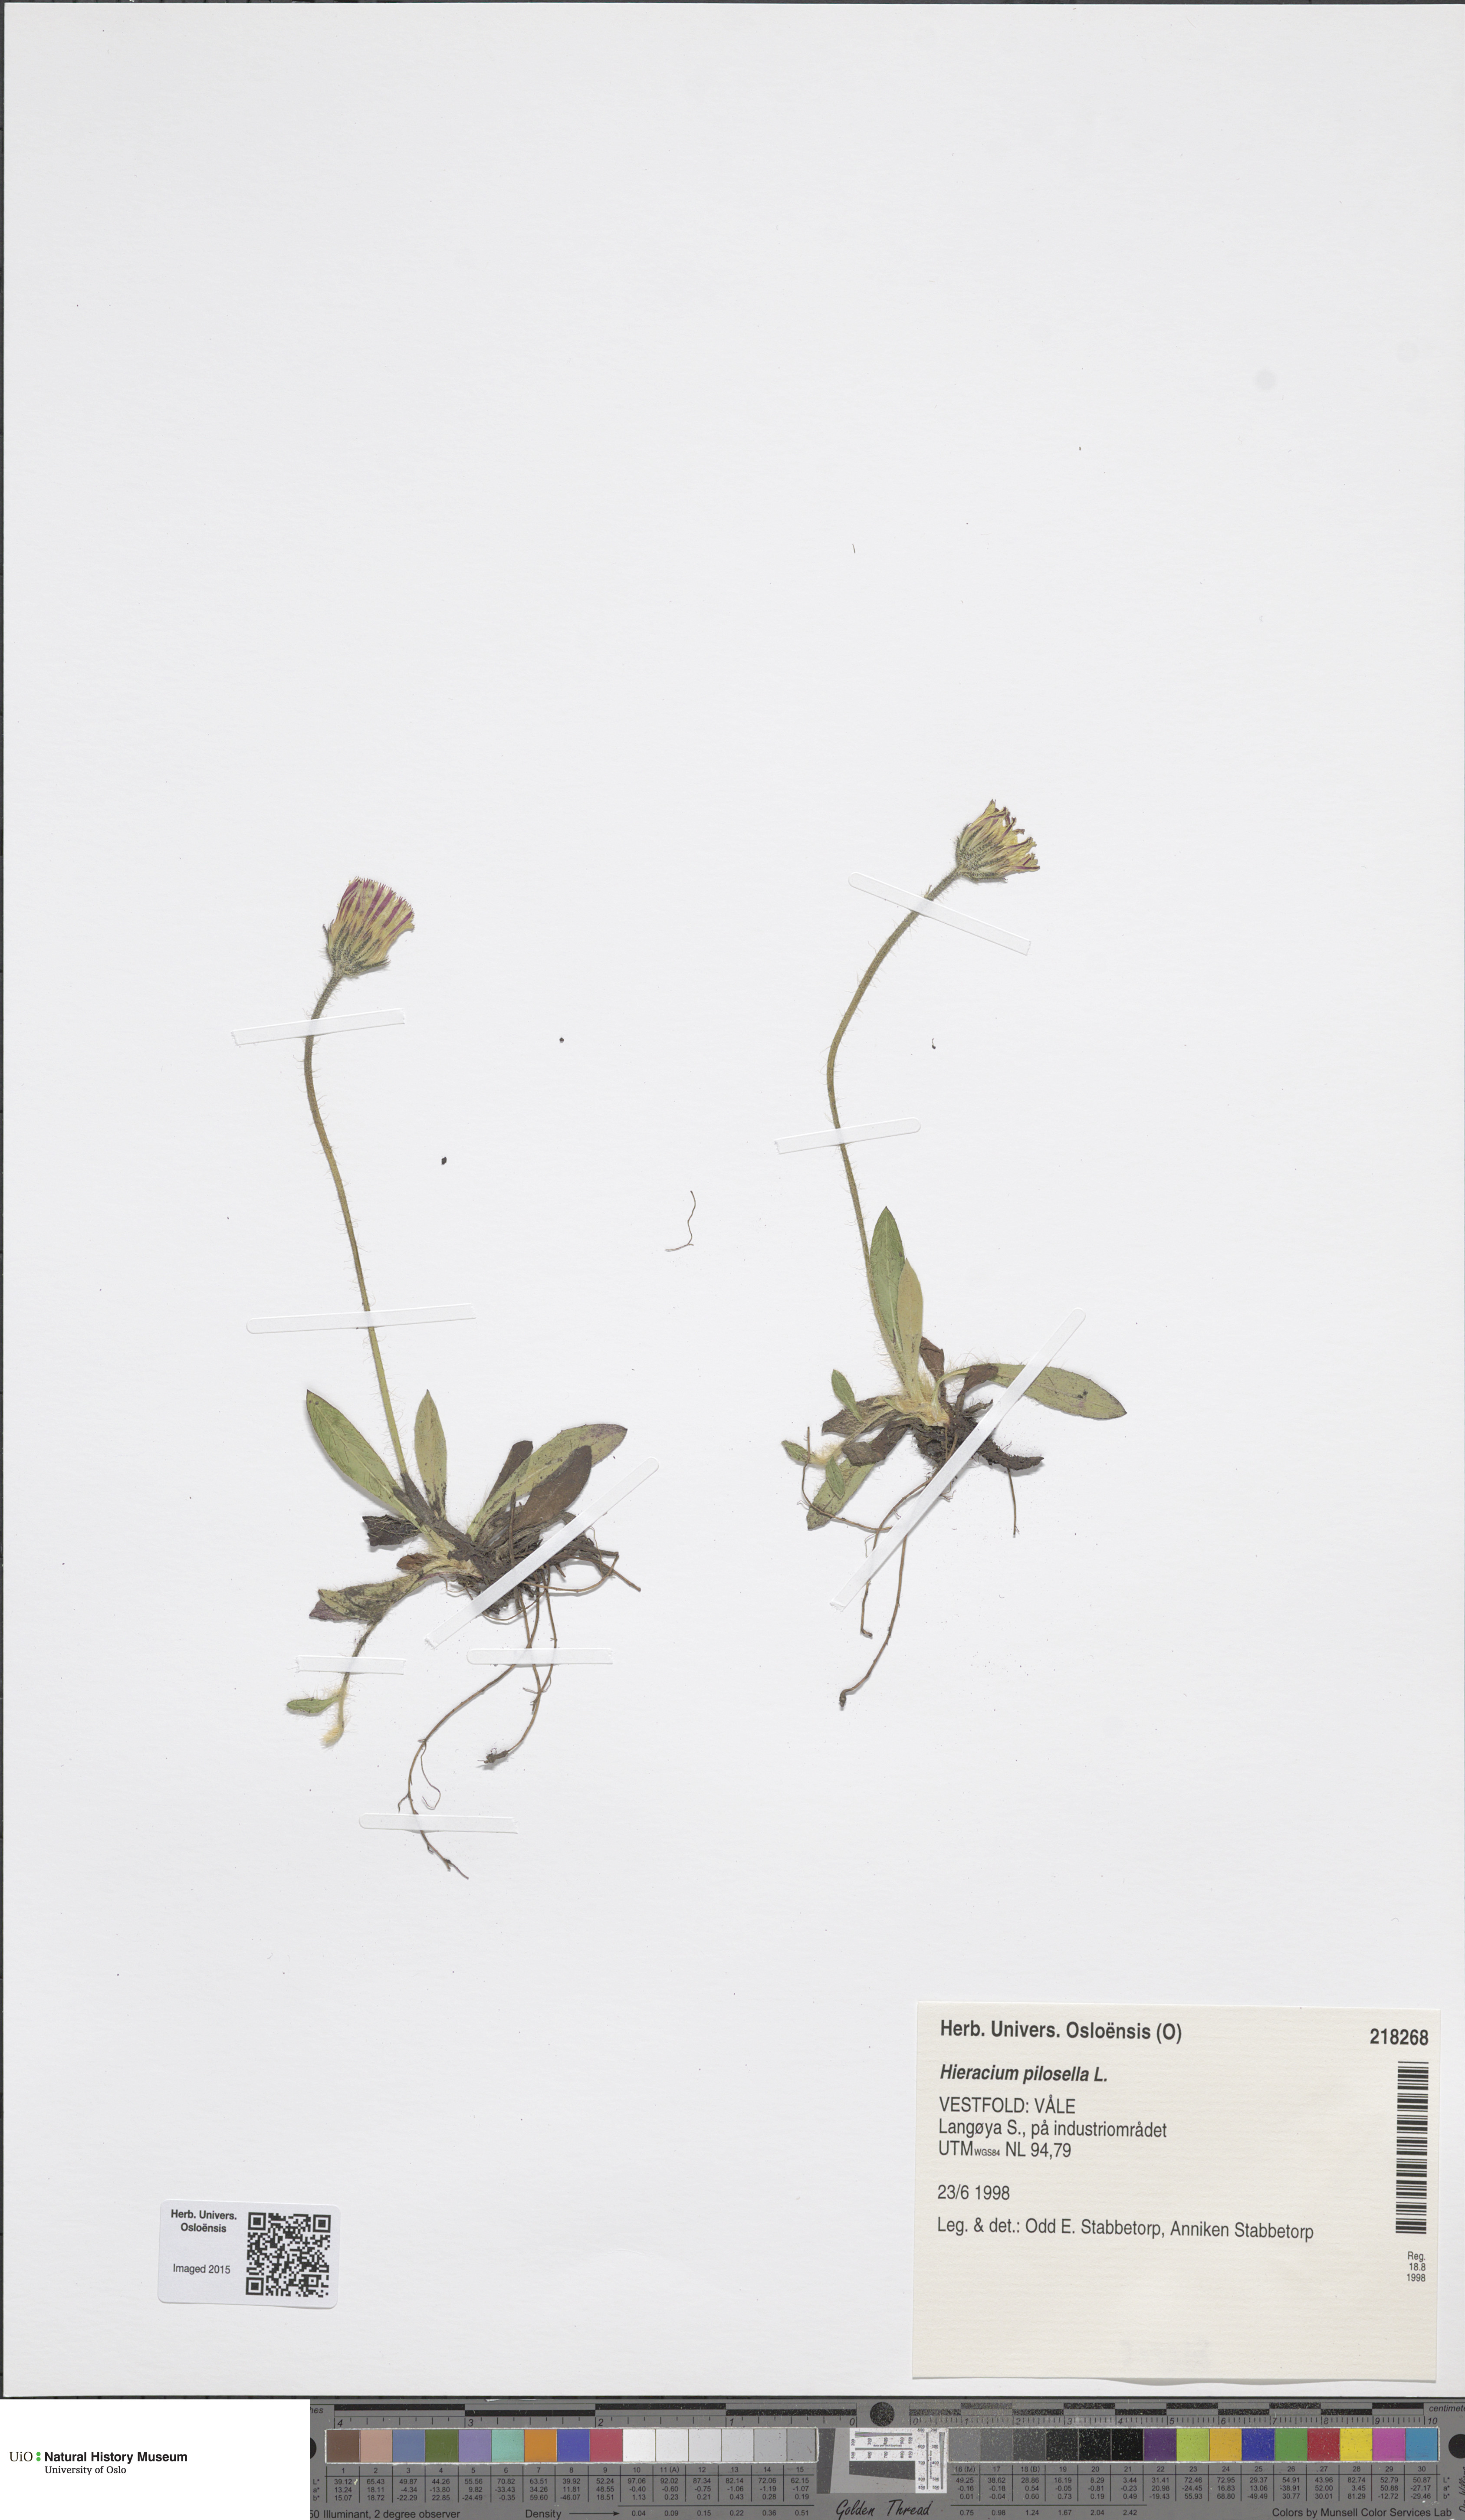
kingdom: Plantae
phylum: Tracheophyta
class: Magnoliopsida
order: Asterales
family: Asteraceae
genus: Pilosella
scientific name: Pilosella officinarum
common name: Mouse-ear hawkweed
